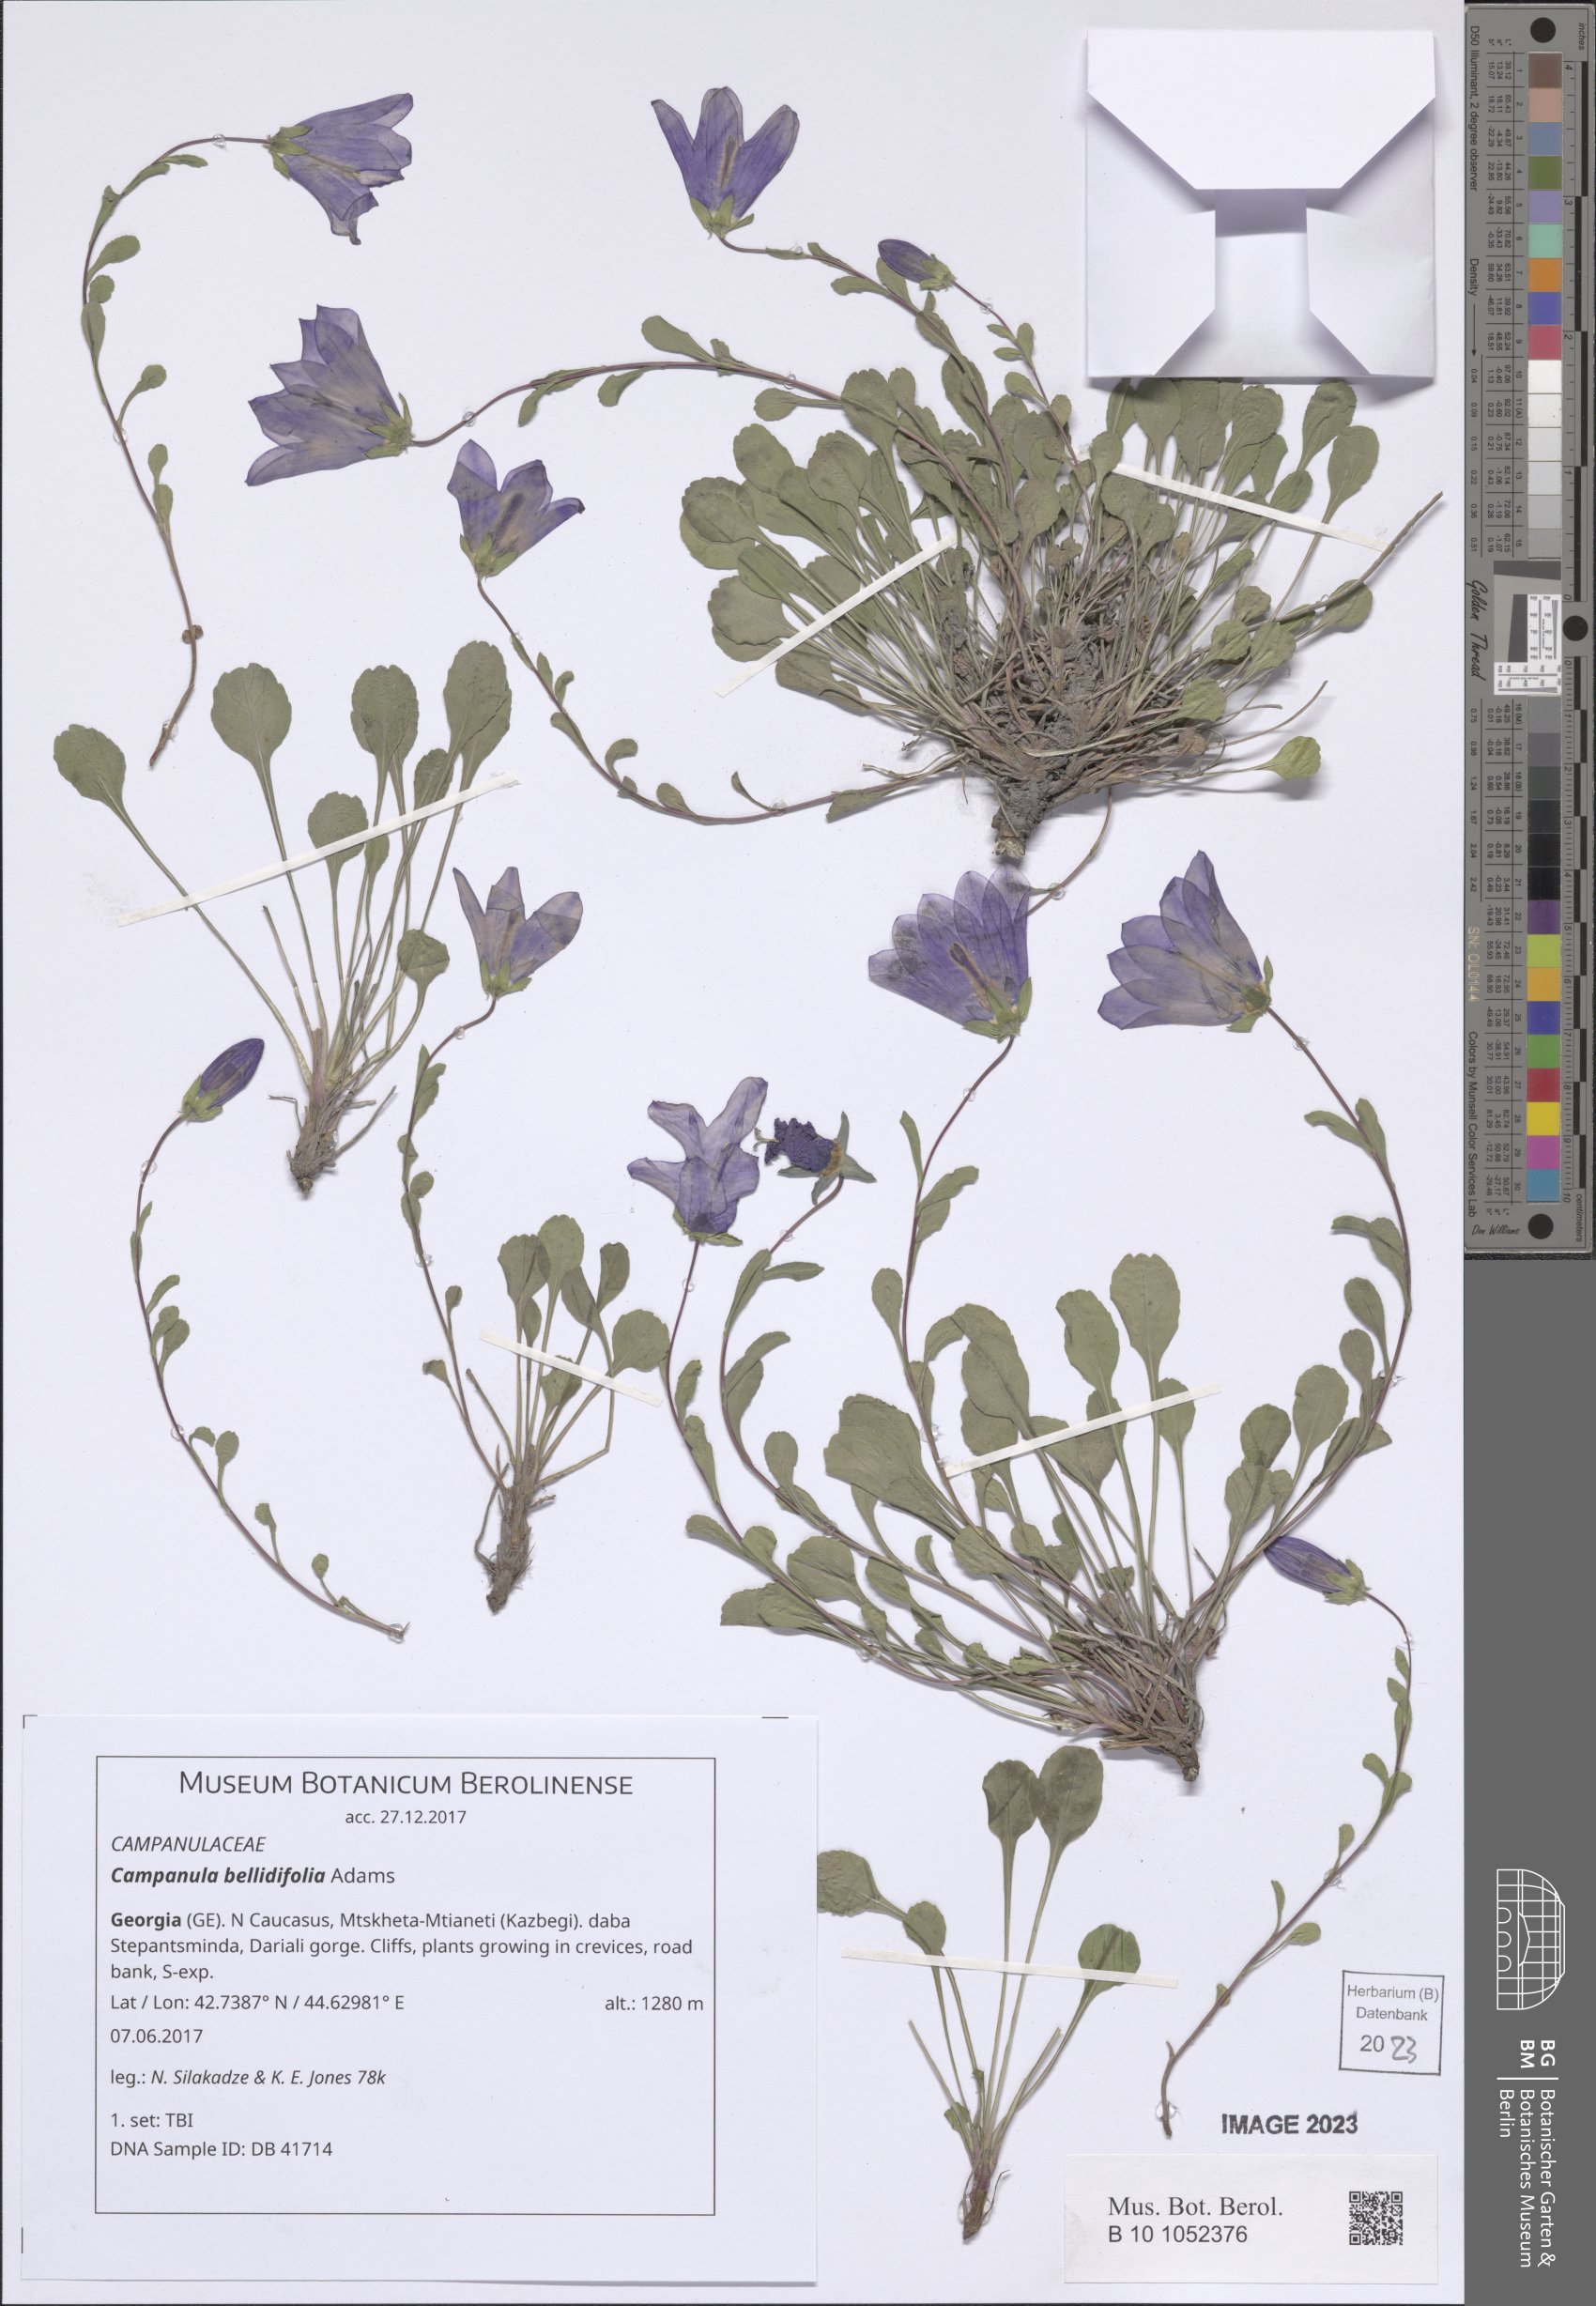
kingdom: Plantae
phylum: Tracheophyta
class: Magnoliopsida
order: Asterales
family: Campanulaceae
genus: Campanula
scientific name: Campanula bellidifolia
